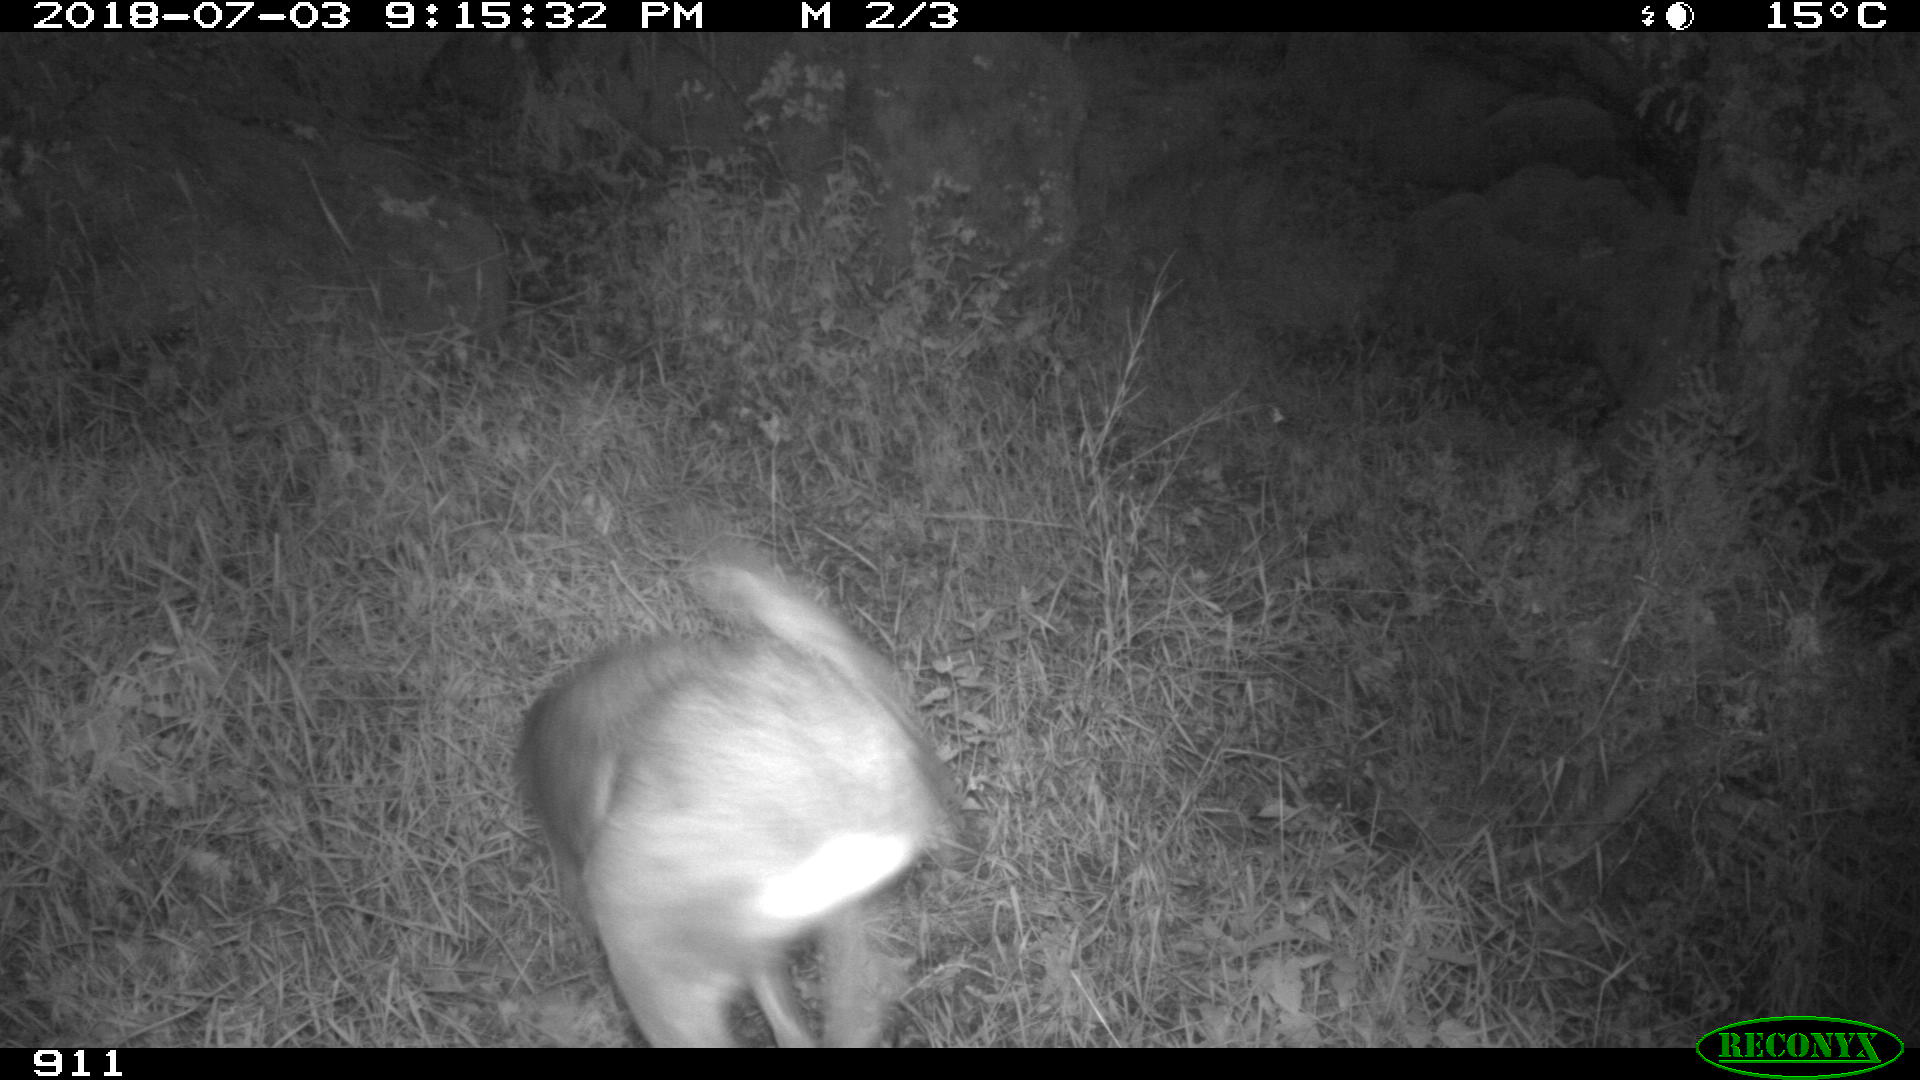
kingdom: Animalia
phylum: Chordata
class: Mammalia
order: Artiodactyla
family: Cervidae
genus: Capreolus
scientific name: Capreolus capreolus
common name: Western roe deer
